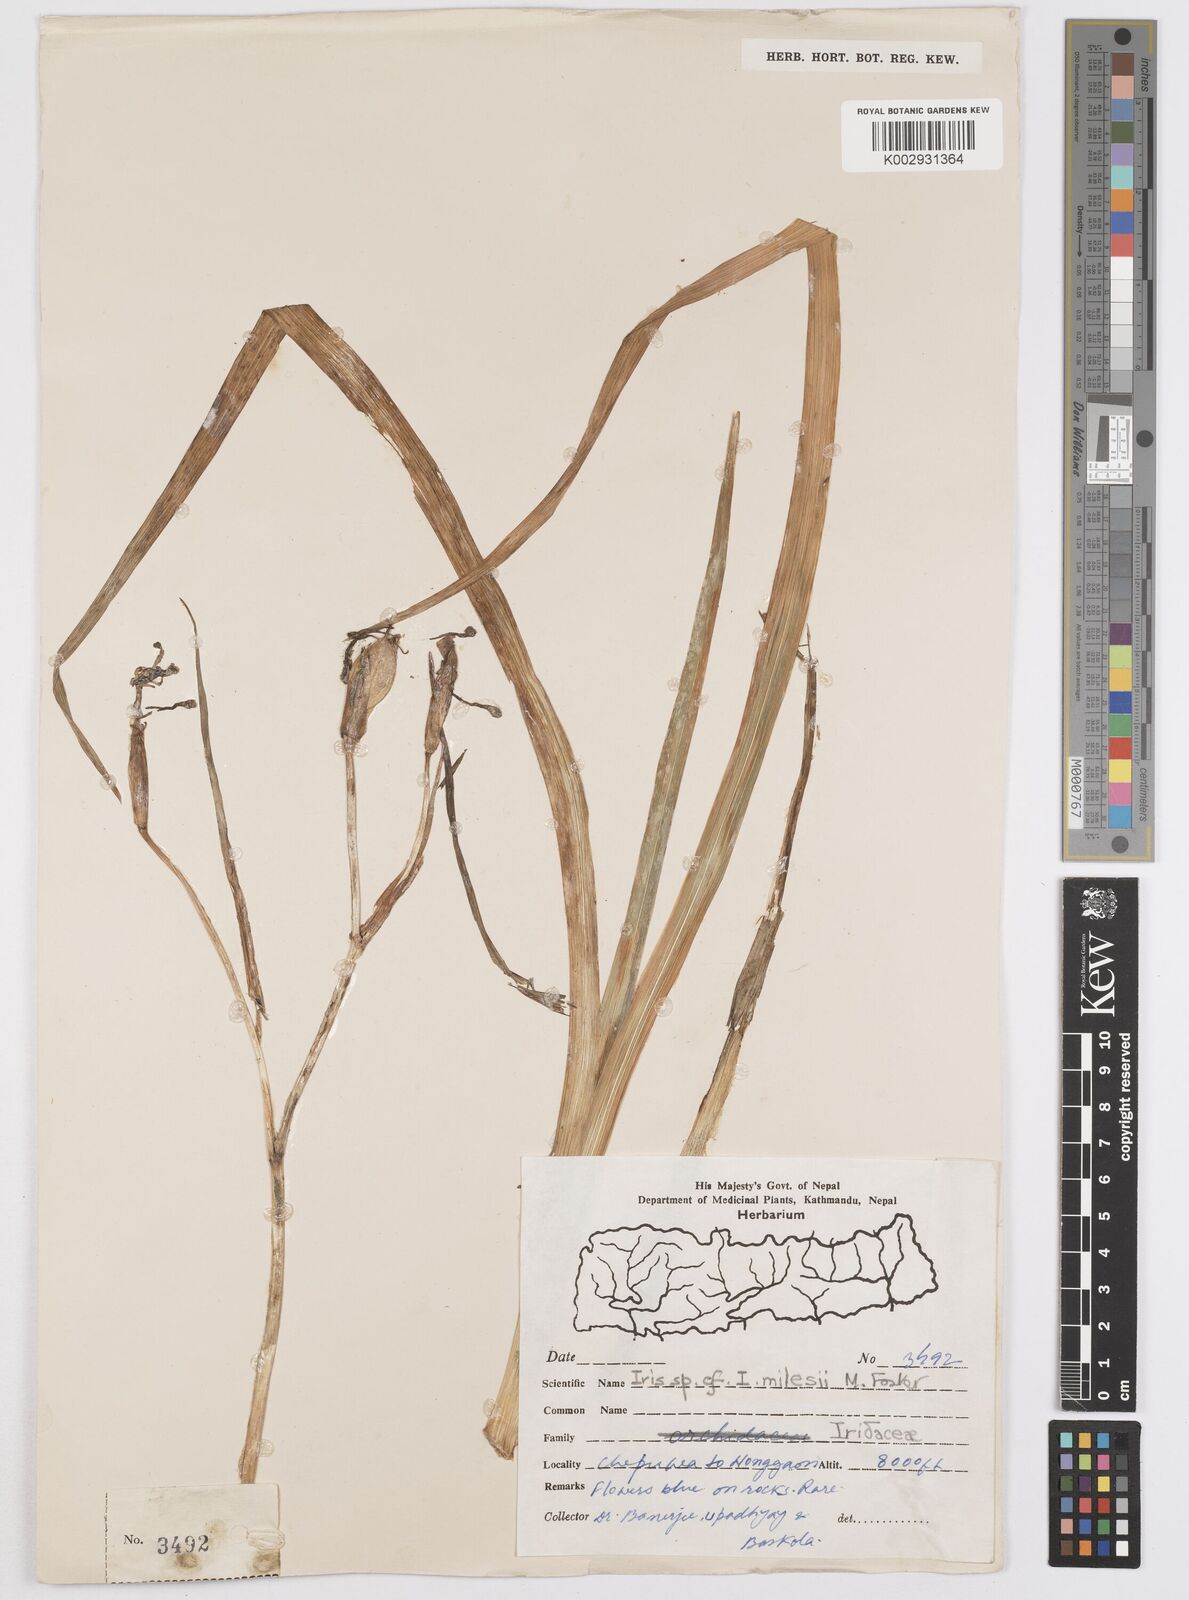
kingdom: Plantae
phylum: Tracheophyta
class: Liliopsida
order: Asparagales
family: Iridaceae
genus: Iris
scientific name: Iris halophila
